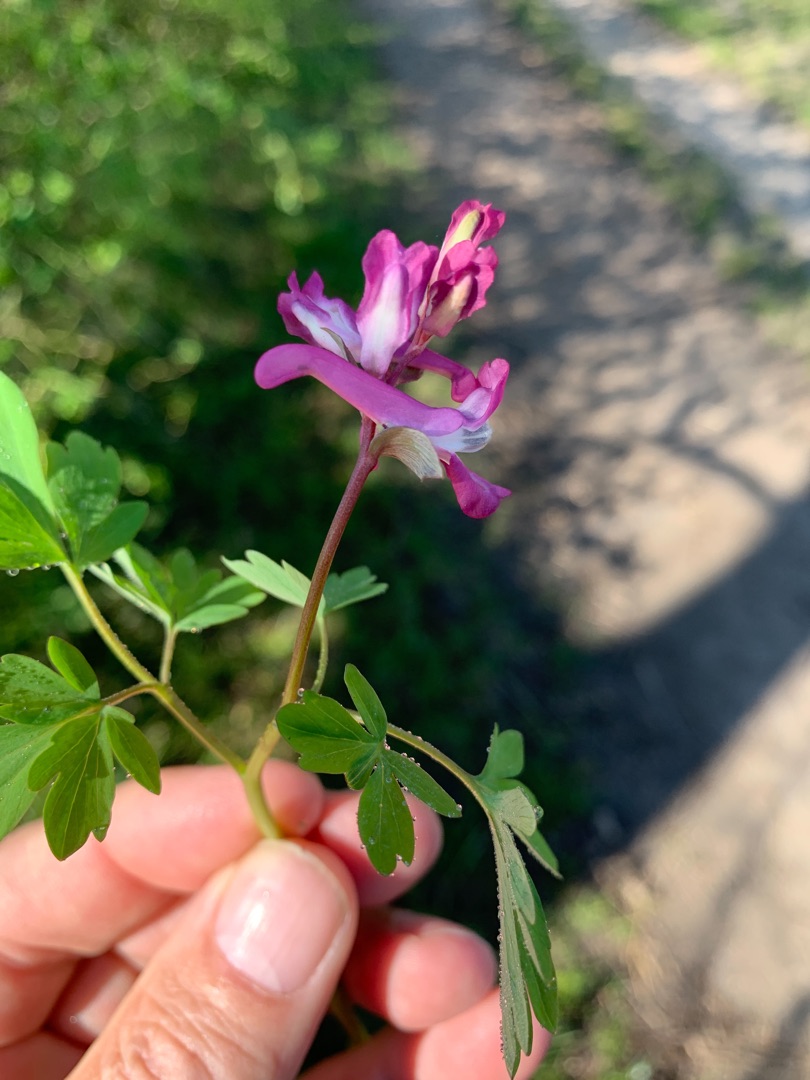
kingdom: Plantae
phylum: Tracheophyta
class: Magnoliopsida
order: Ranunculales
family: Papaveraceae
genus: Corydalis
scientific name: Corydalis cava
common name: Hulrodet lærkespore
